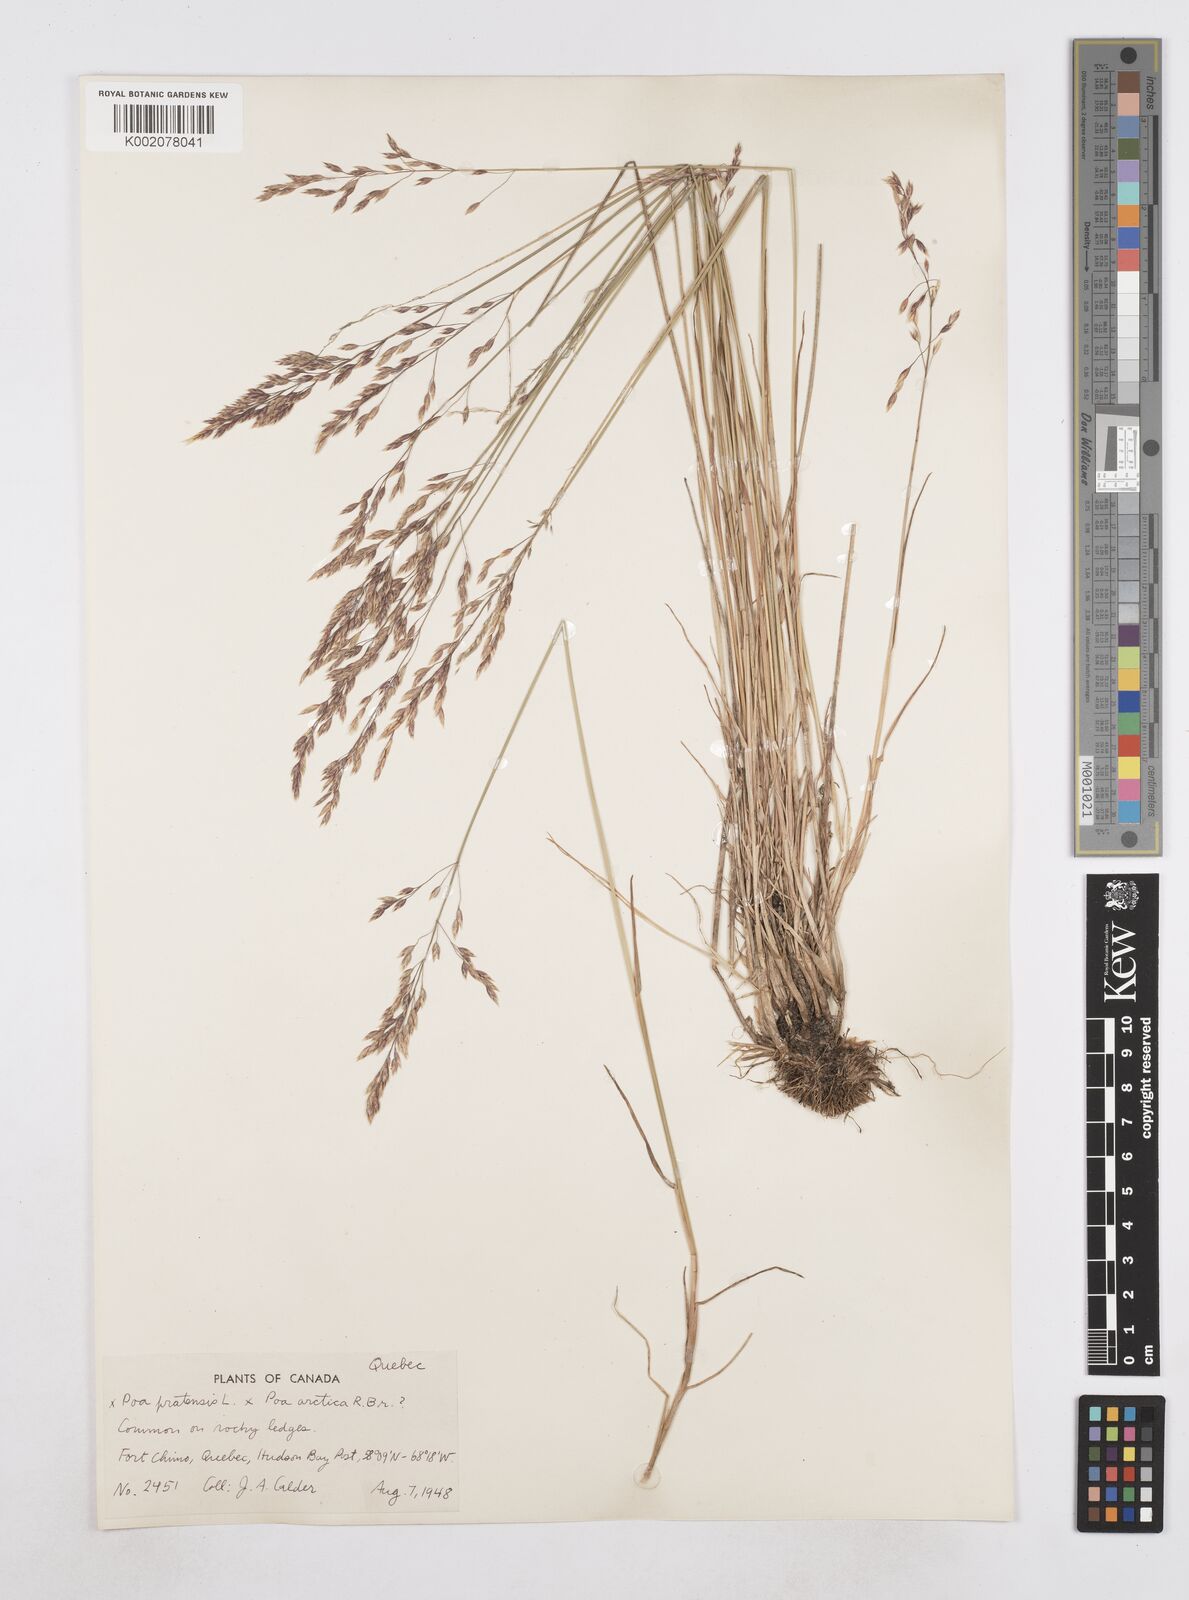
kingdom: Plantae
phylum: Tracheophyta
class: Liliopsida
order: Poales
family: Poaceae
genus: Poa
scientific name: Poa
